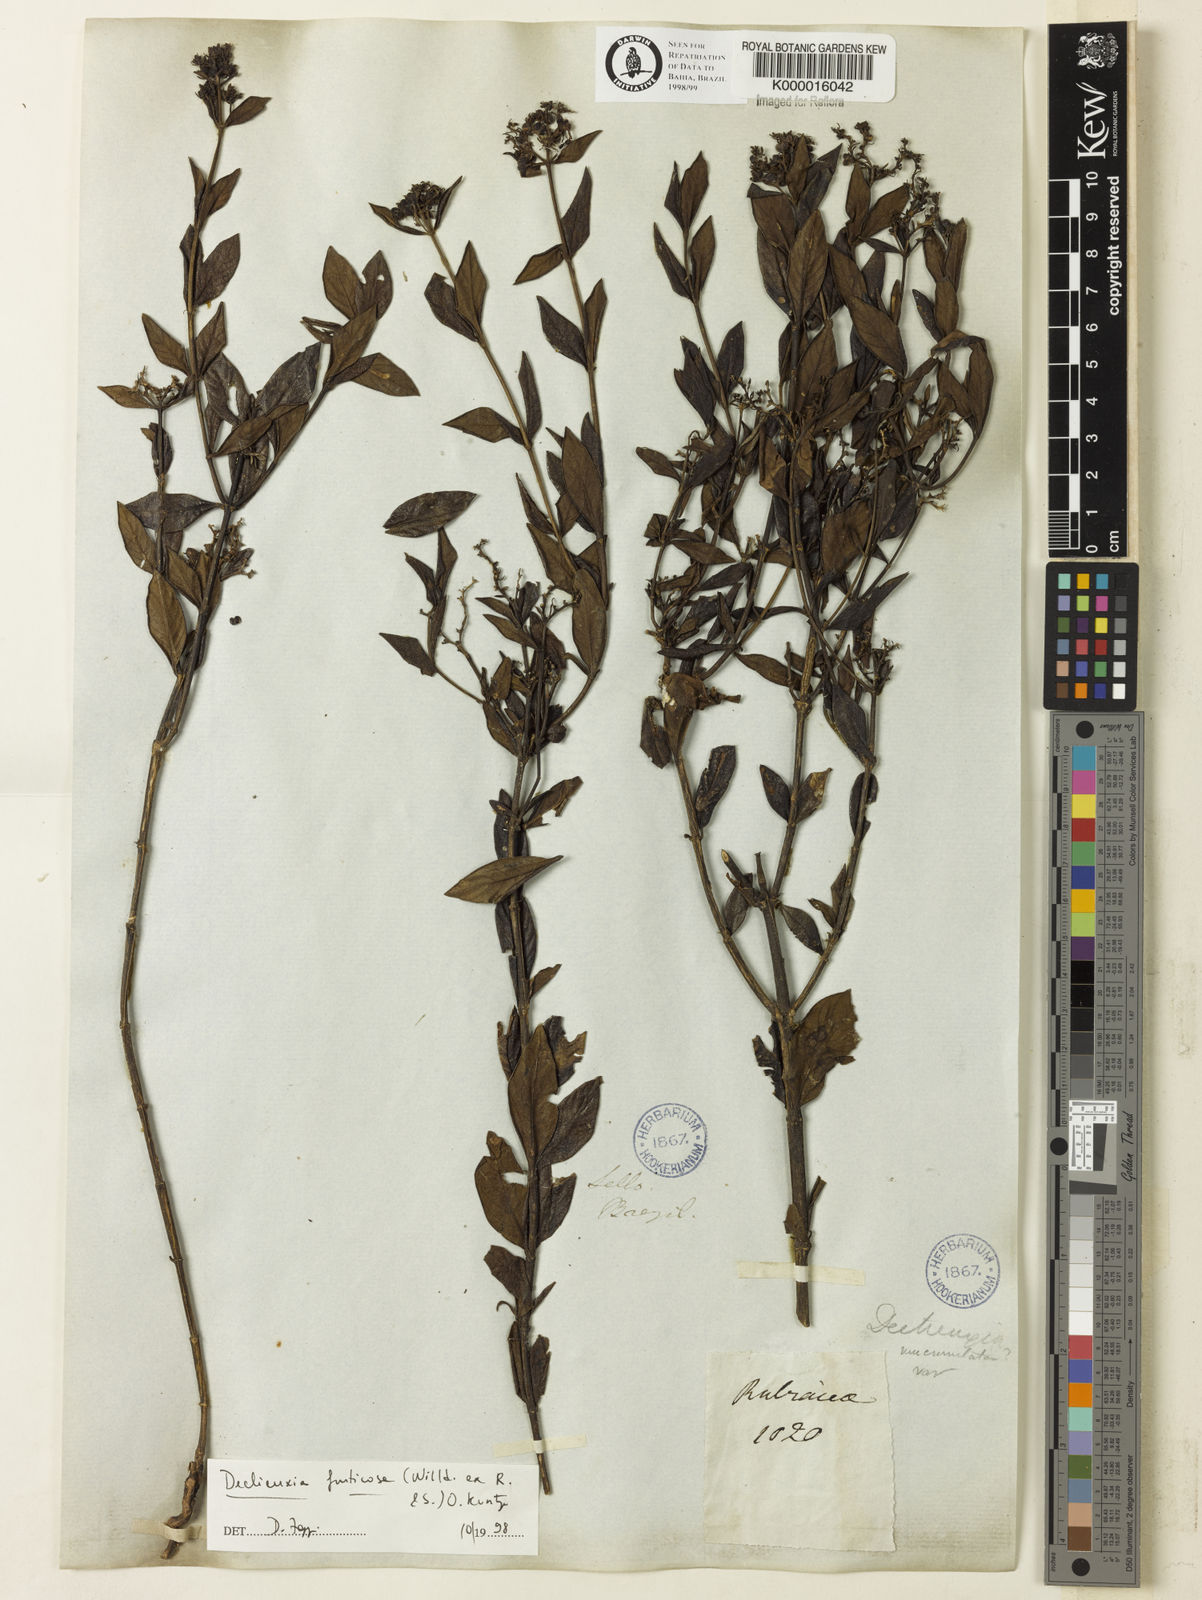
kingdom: Plantae
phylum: Tracheophyta
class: Magnoliopsida
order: Gentianales
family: Rubiaceae
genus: Declieuxia
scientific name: Declieuxia fruticosa
